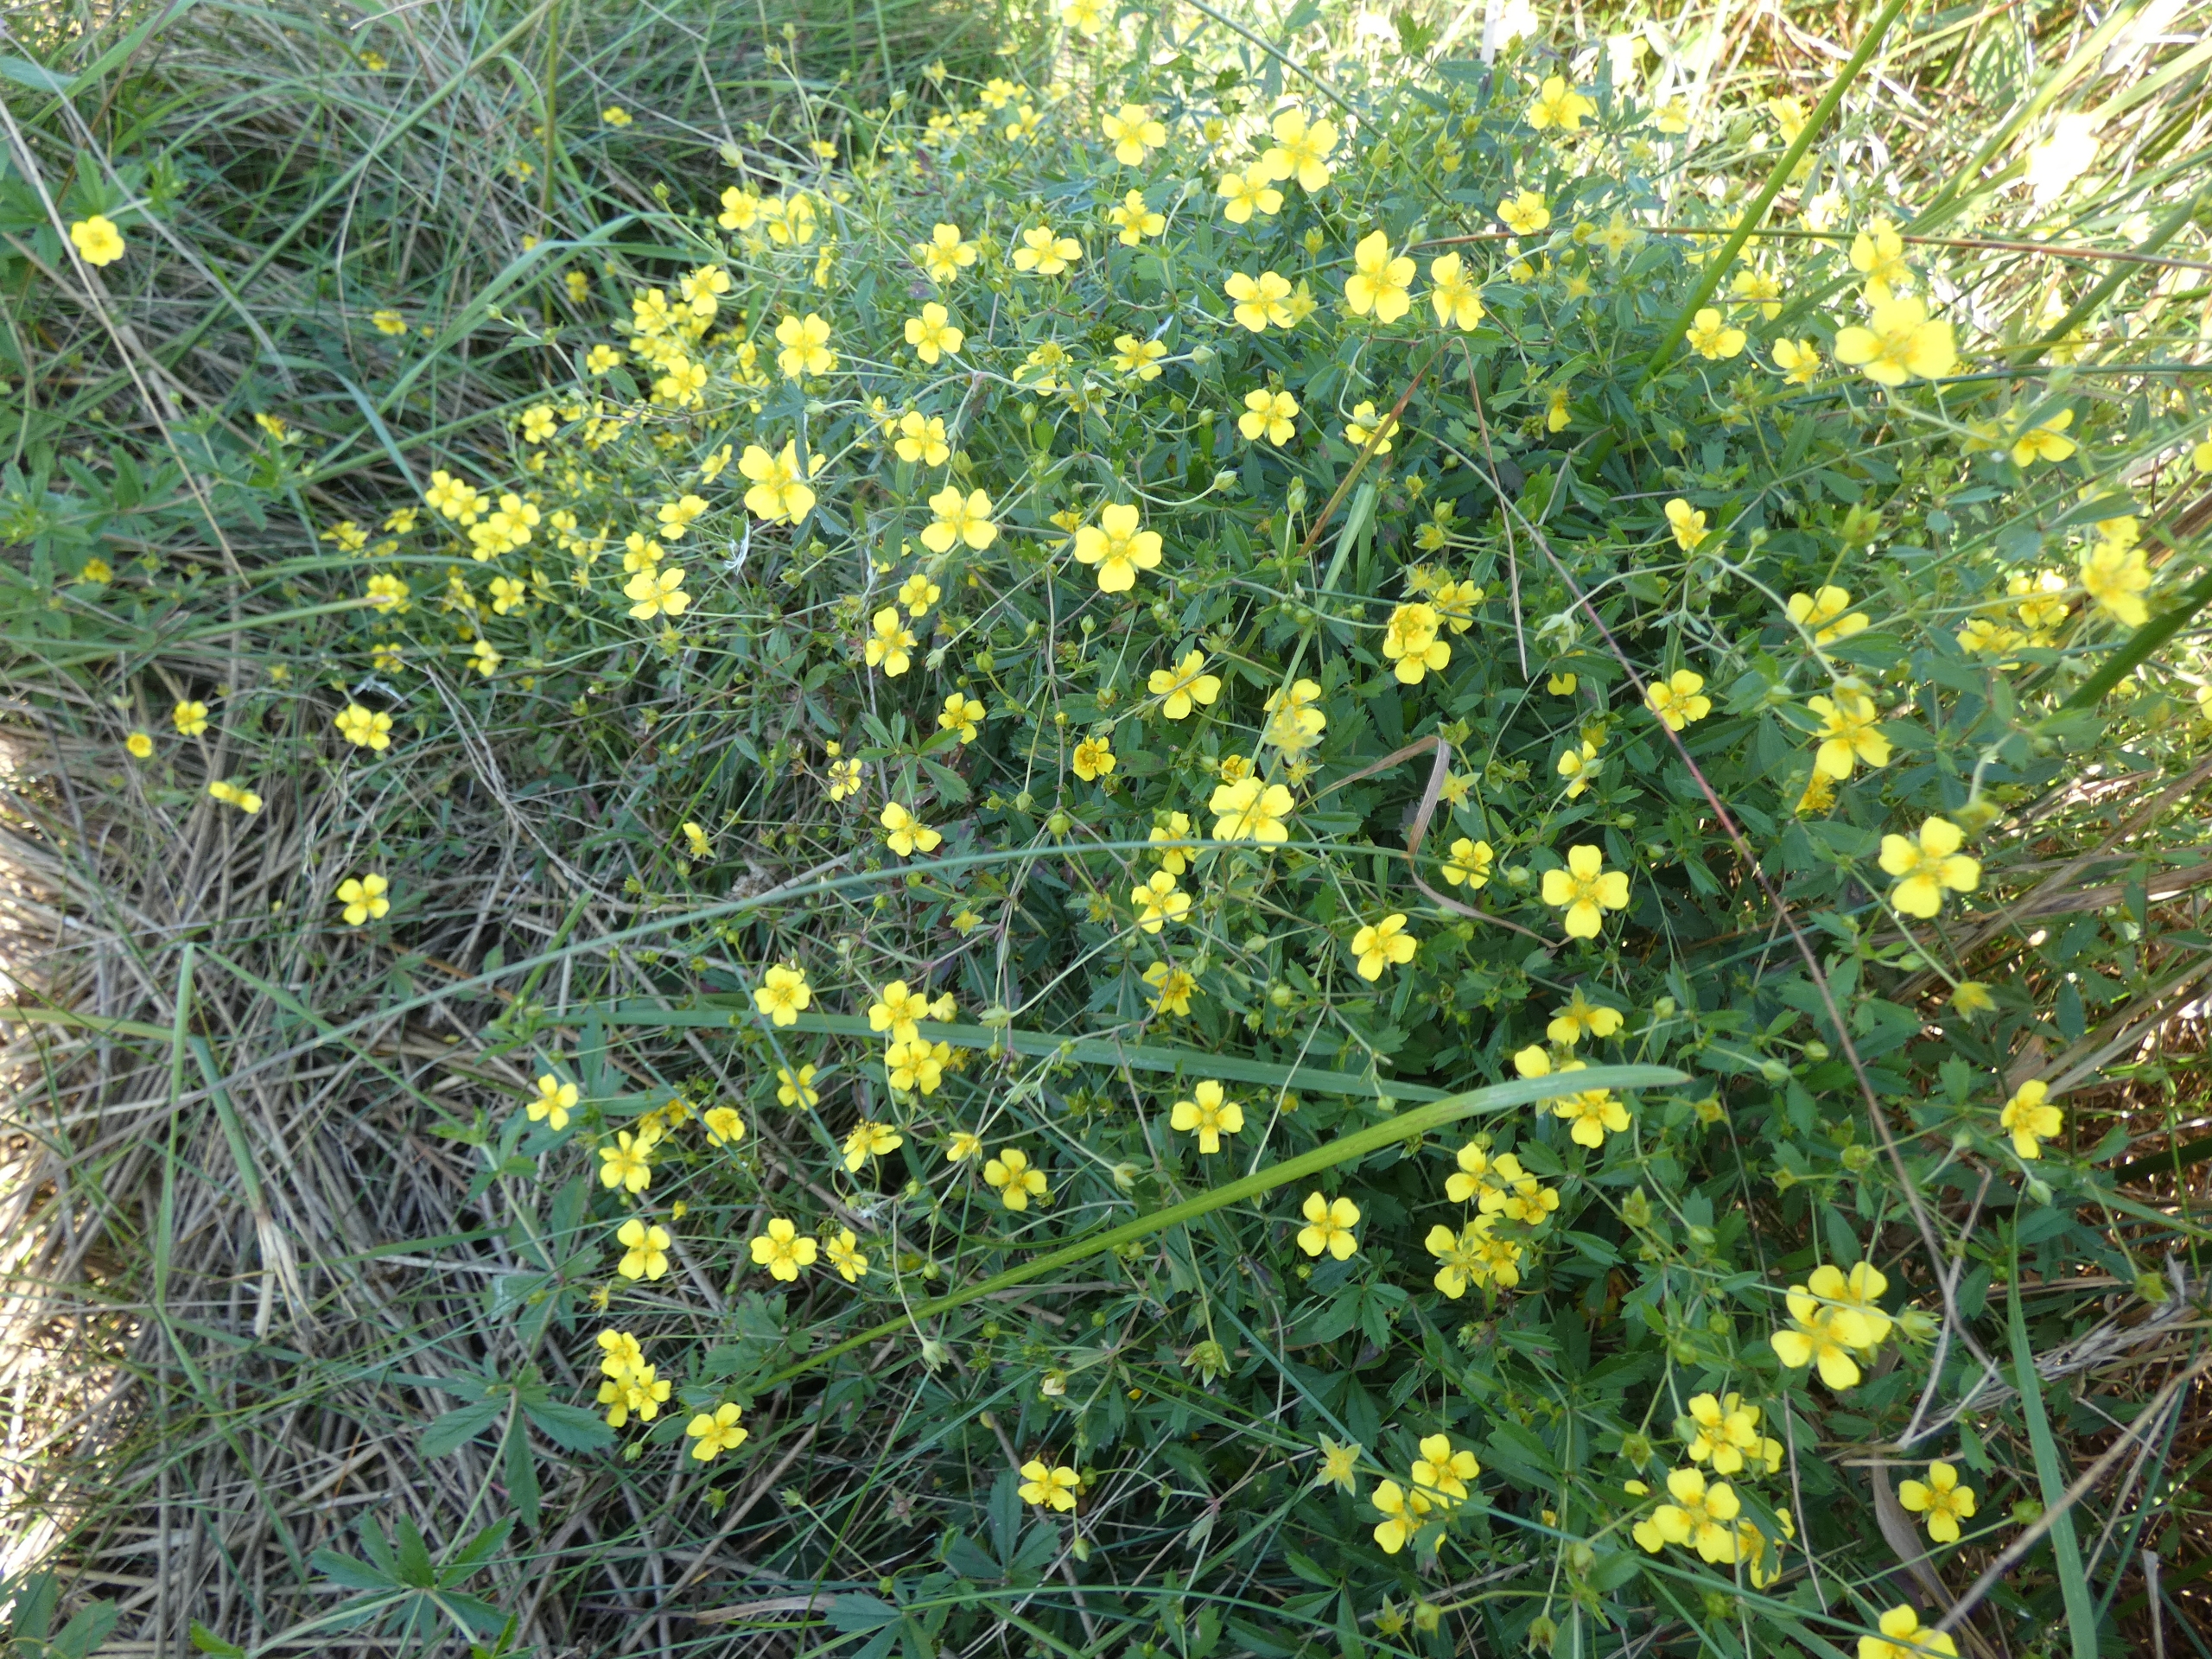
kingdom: Plantae
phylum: Tracheophyta
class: Magnoliopsida
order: Rosales
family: Rosaceae
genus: Potentilla
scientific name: Potentilla erecta
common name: Tormentil
